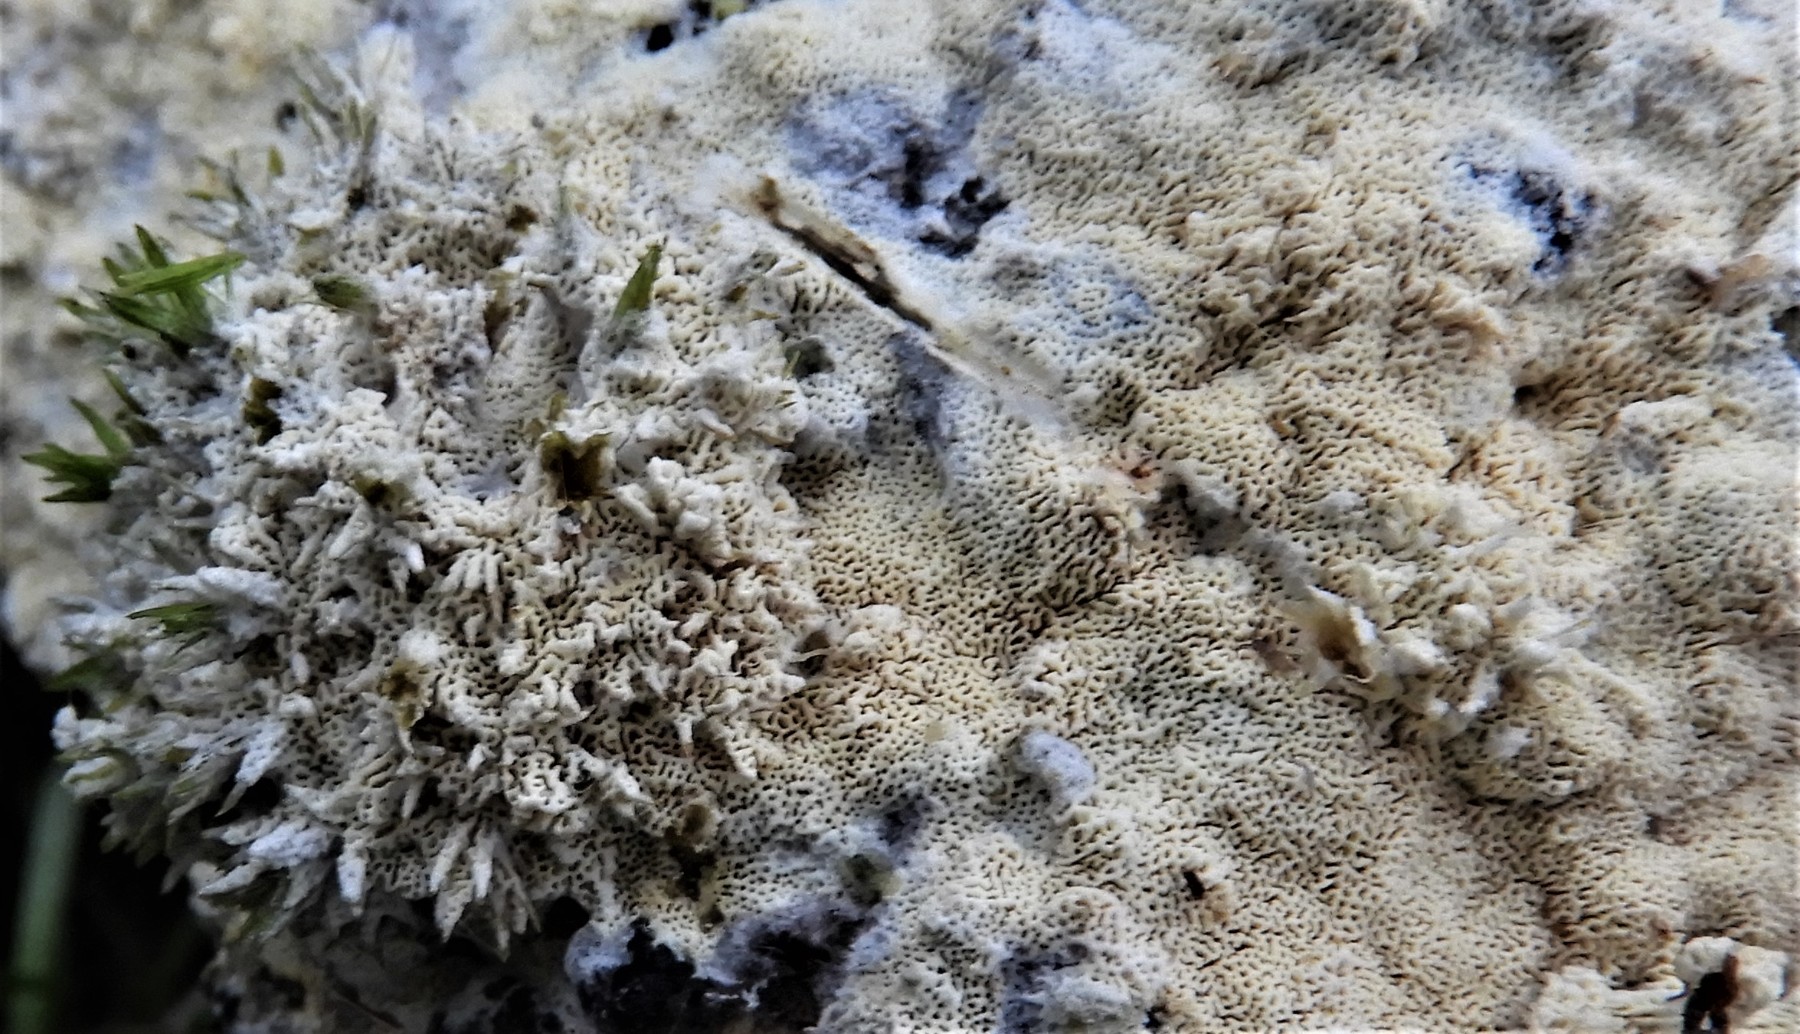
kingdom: Fungi
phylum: Basidiomycota
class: Agaricomycetes
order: Hymenochaetales
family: Schizoporaceae
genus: Xylodon
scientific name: Xylodon subtropicus
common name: labyrint-tandsvamp
